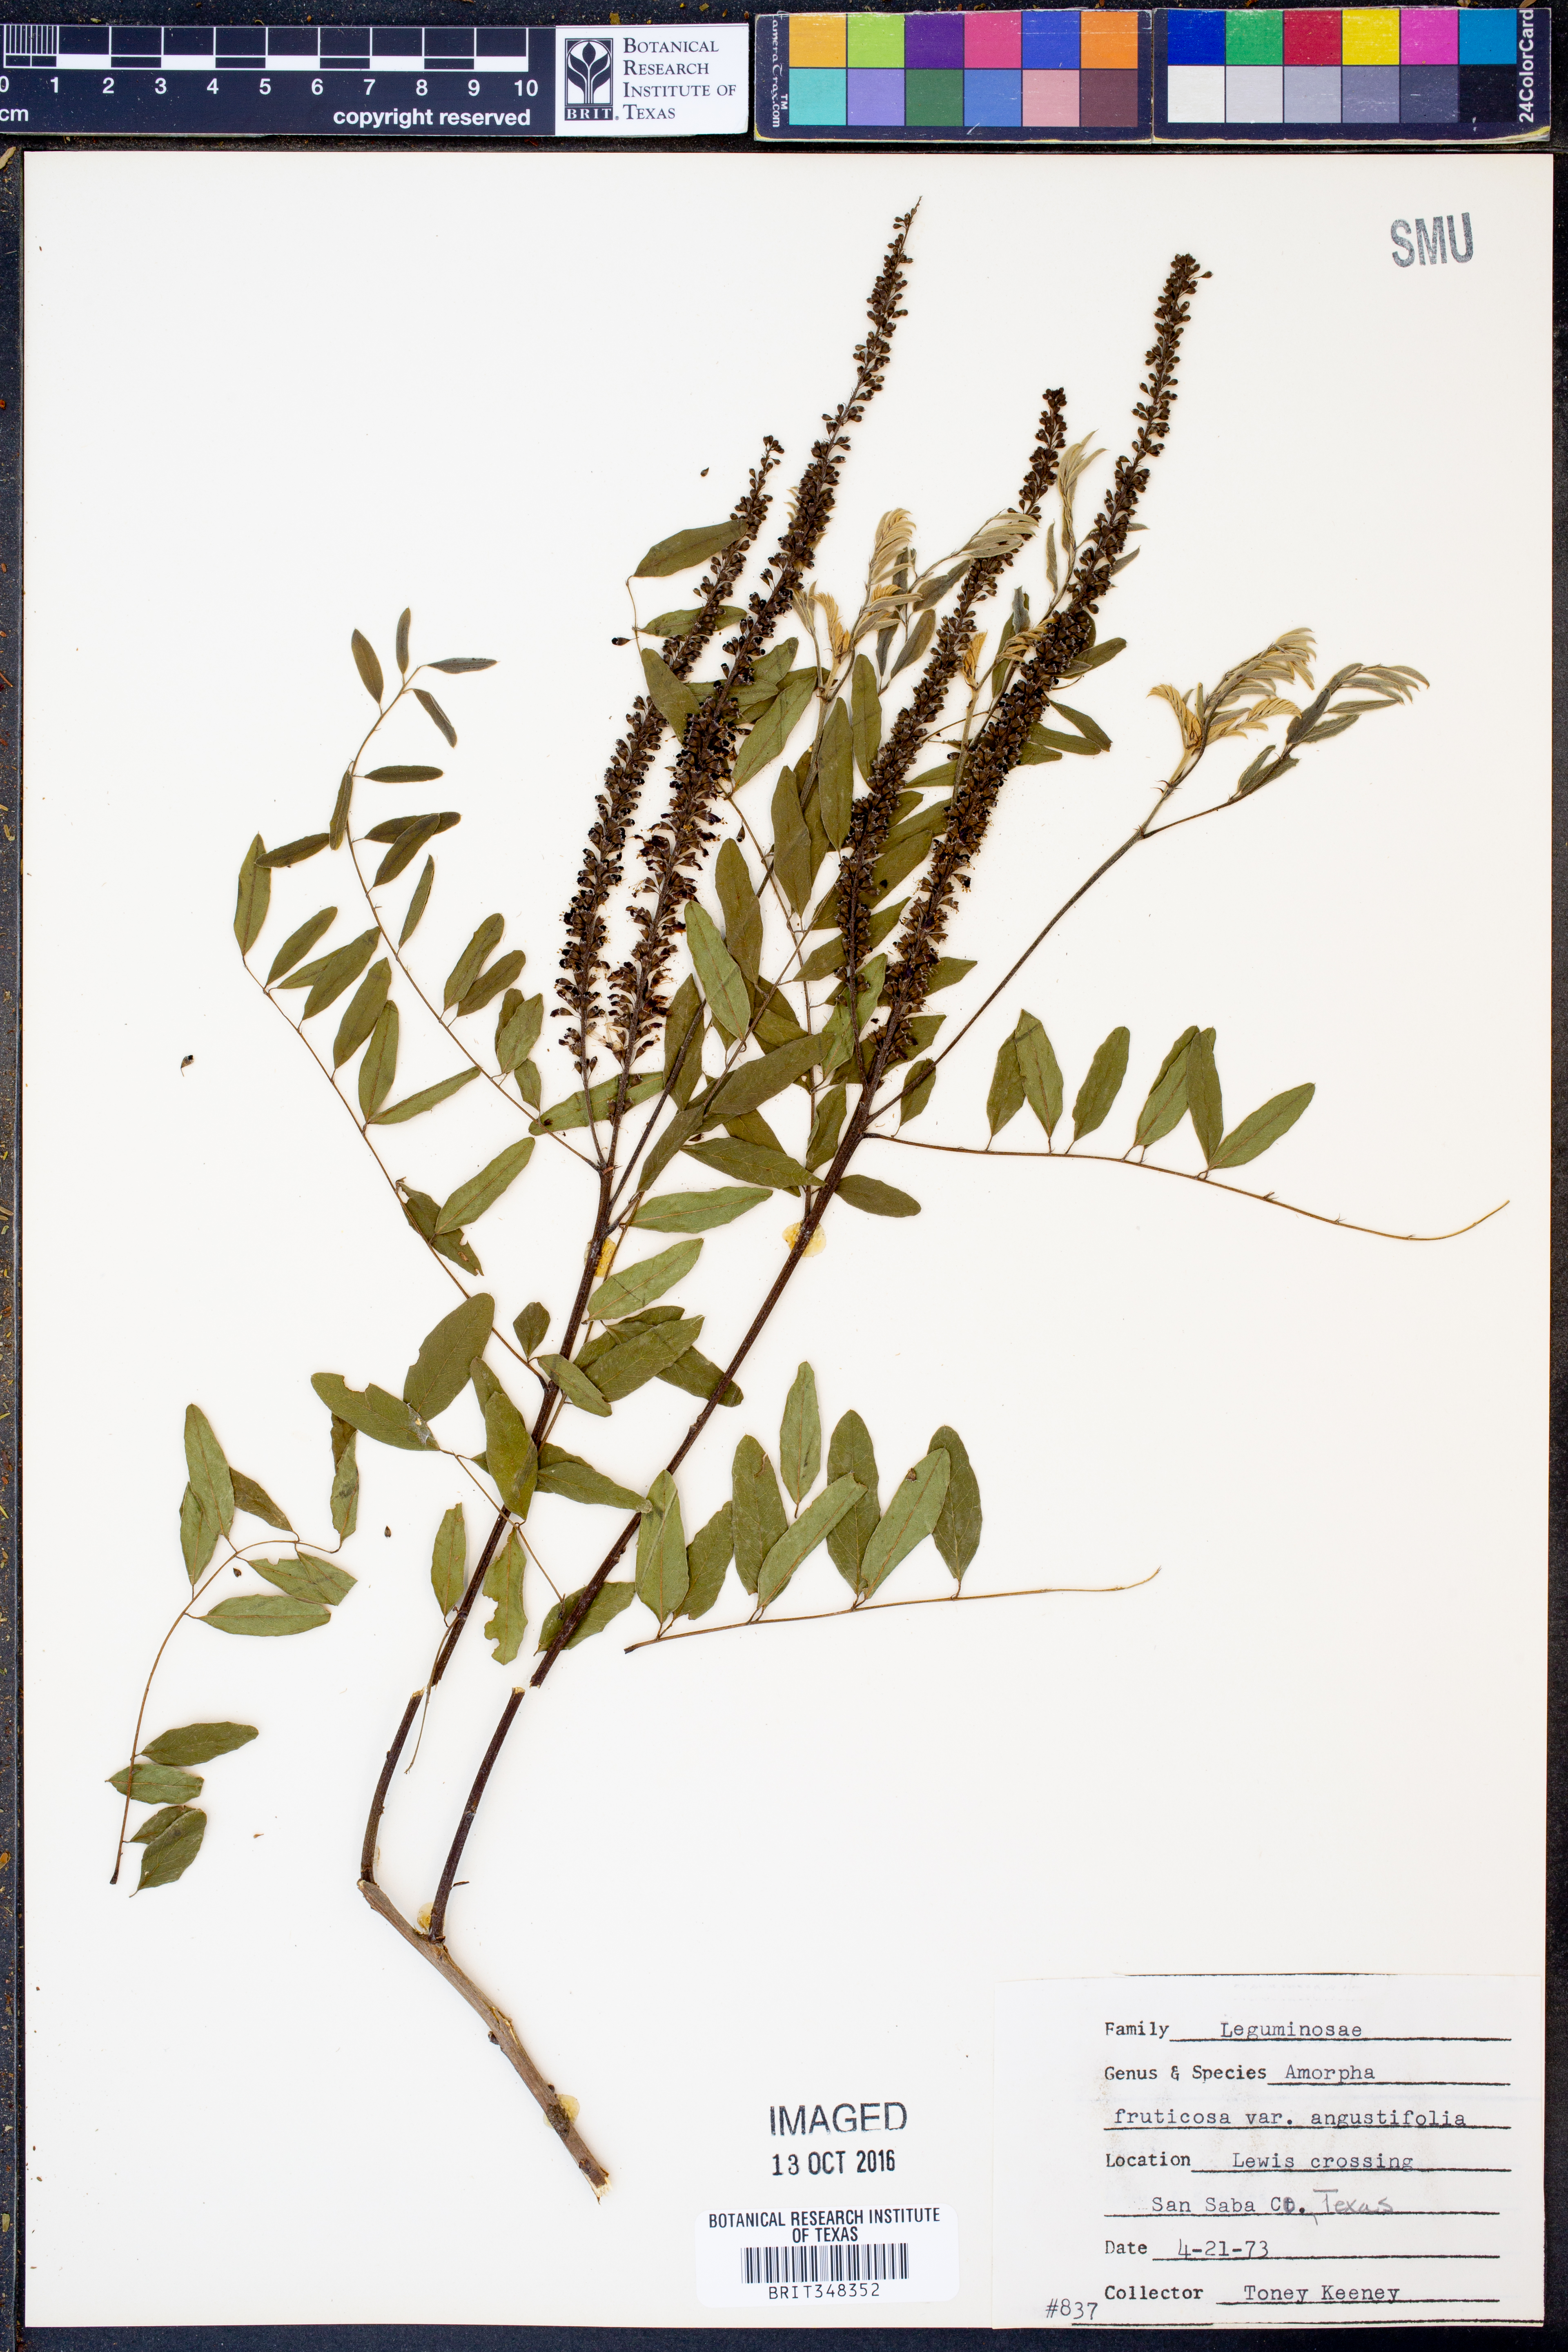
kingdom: Plantae
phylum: Tracheophyta
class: Magnoliopsida
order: Fabales
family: Fabaceae
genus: Amorpha
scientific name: Amorpha fruticosa
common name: False indigo
